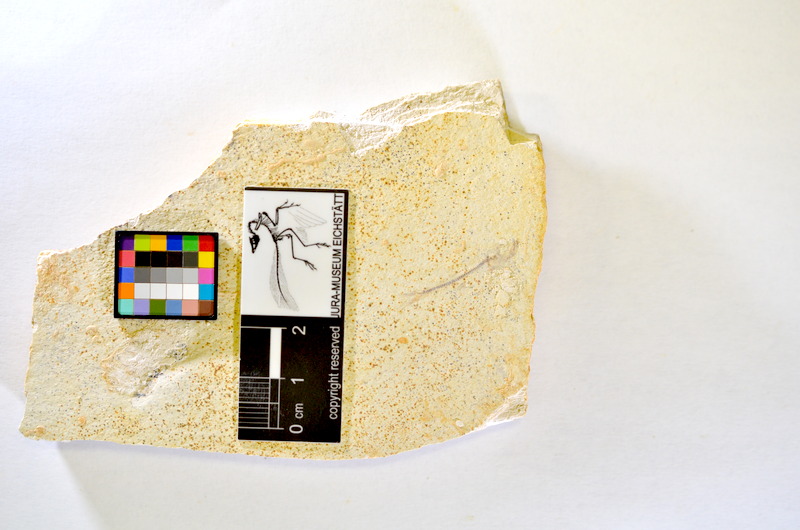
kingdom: Animalia
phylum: Chordata
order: Salmoniformes
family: Orthogonikleithridae
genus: Orthogonikleithrus
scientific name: Orthogonikleithrus hoelli
